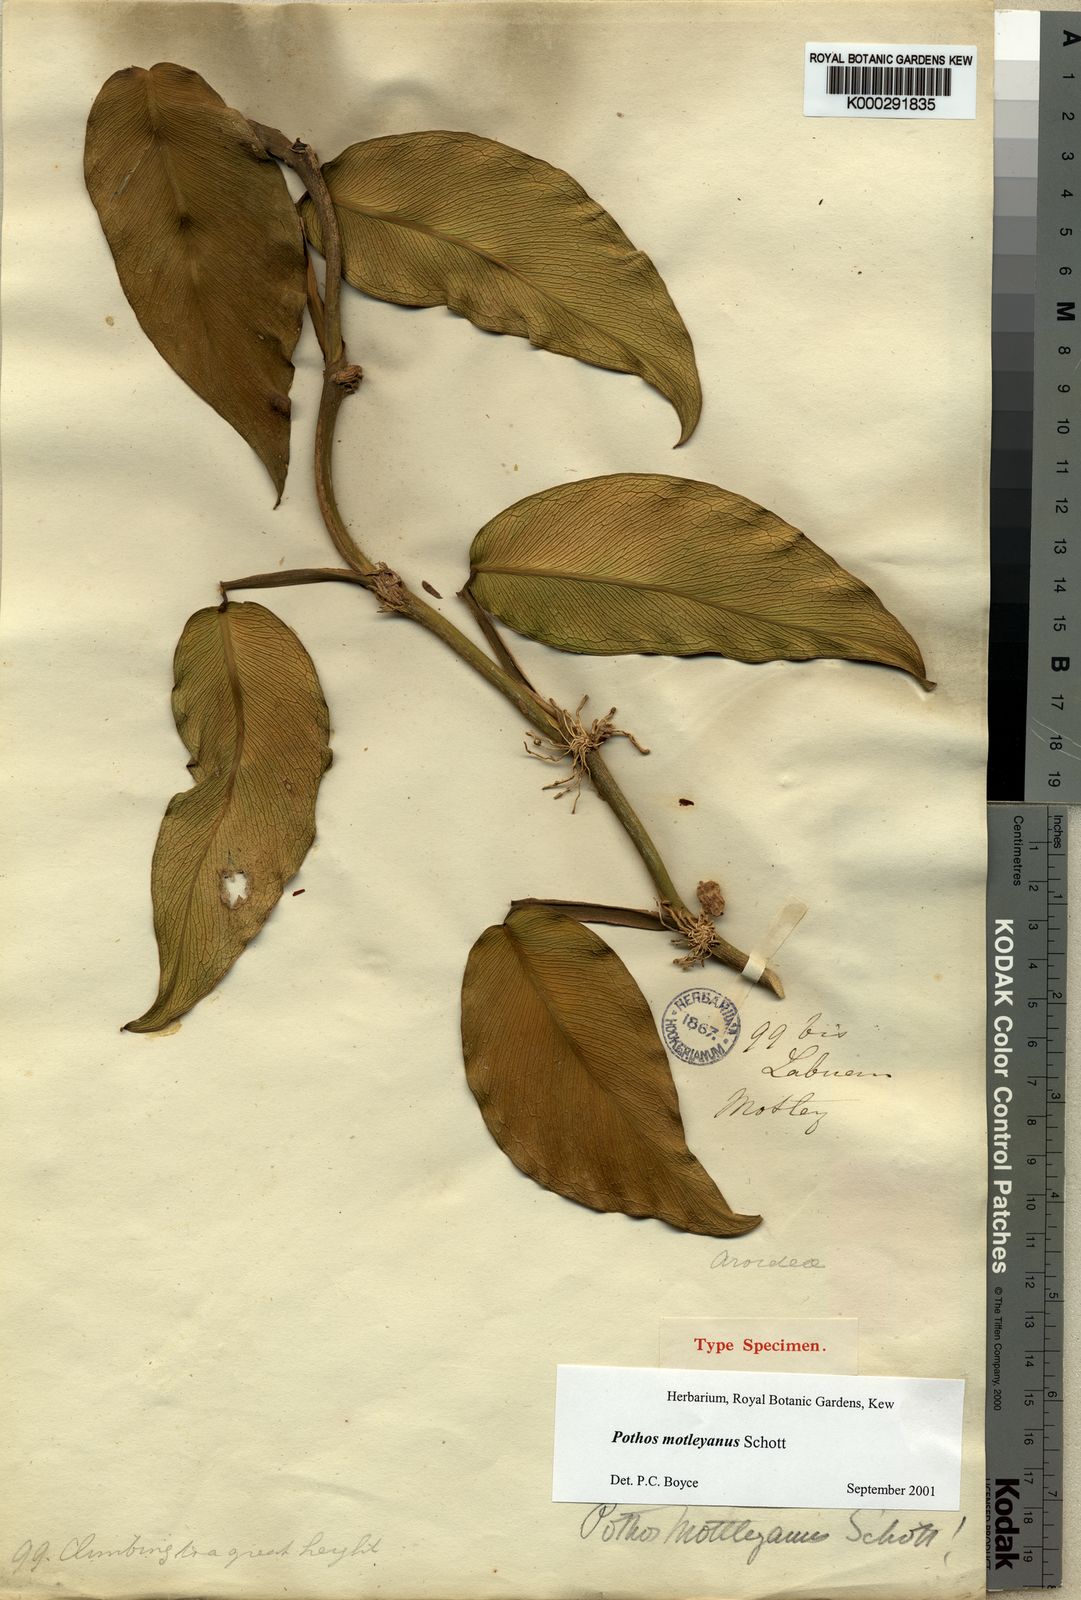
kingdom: Plantae
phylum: Tracheophyta
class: Liliopsida
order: Alismatales
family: Araceae
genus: Pothos
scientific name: Pothos motleyanus
